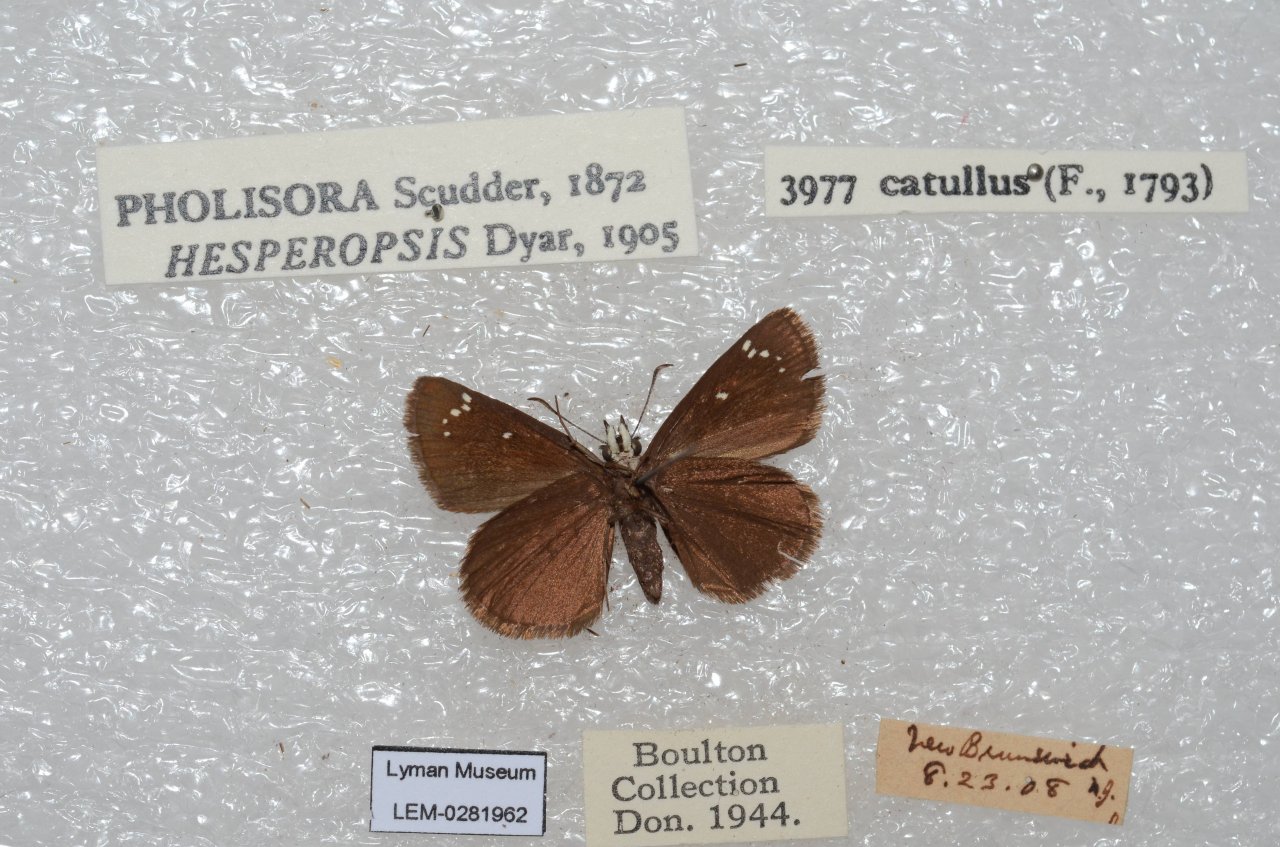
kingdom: Animalia
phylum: Arthropoda
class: Insecta
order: Lepidoptera
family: Hesperiidae
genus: Pholisora
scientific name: Pholisora catullus
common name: Common Sootywing
